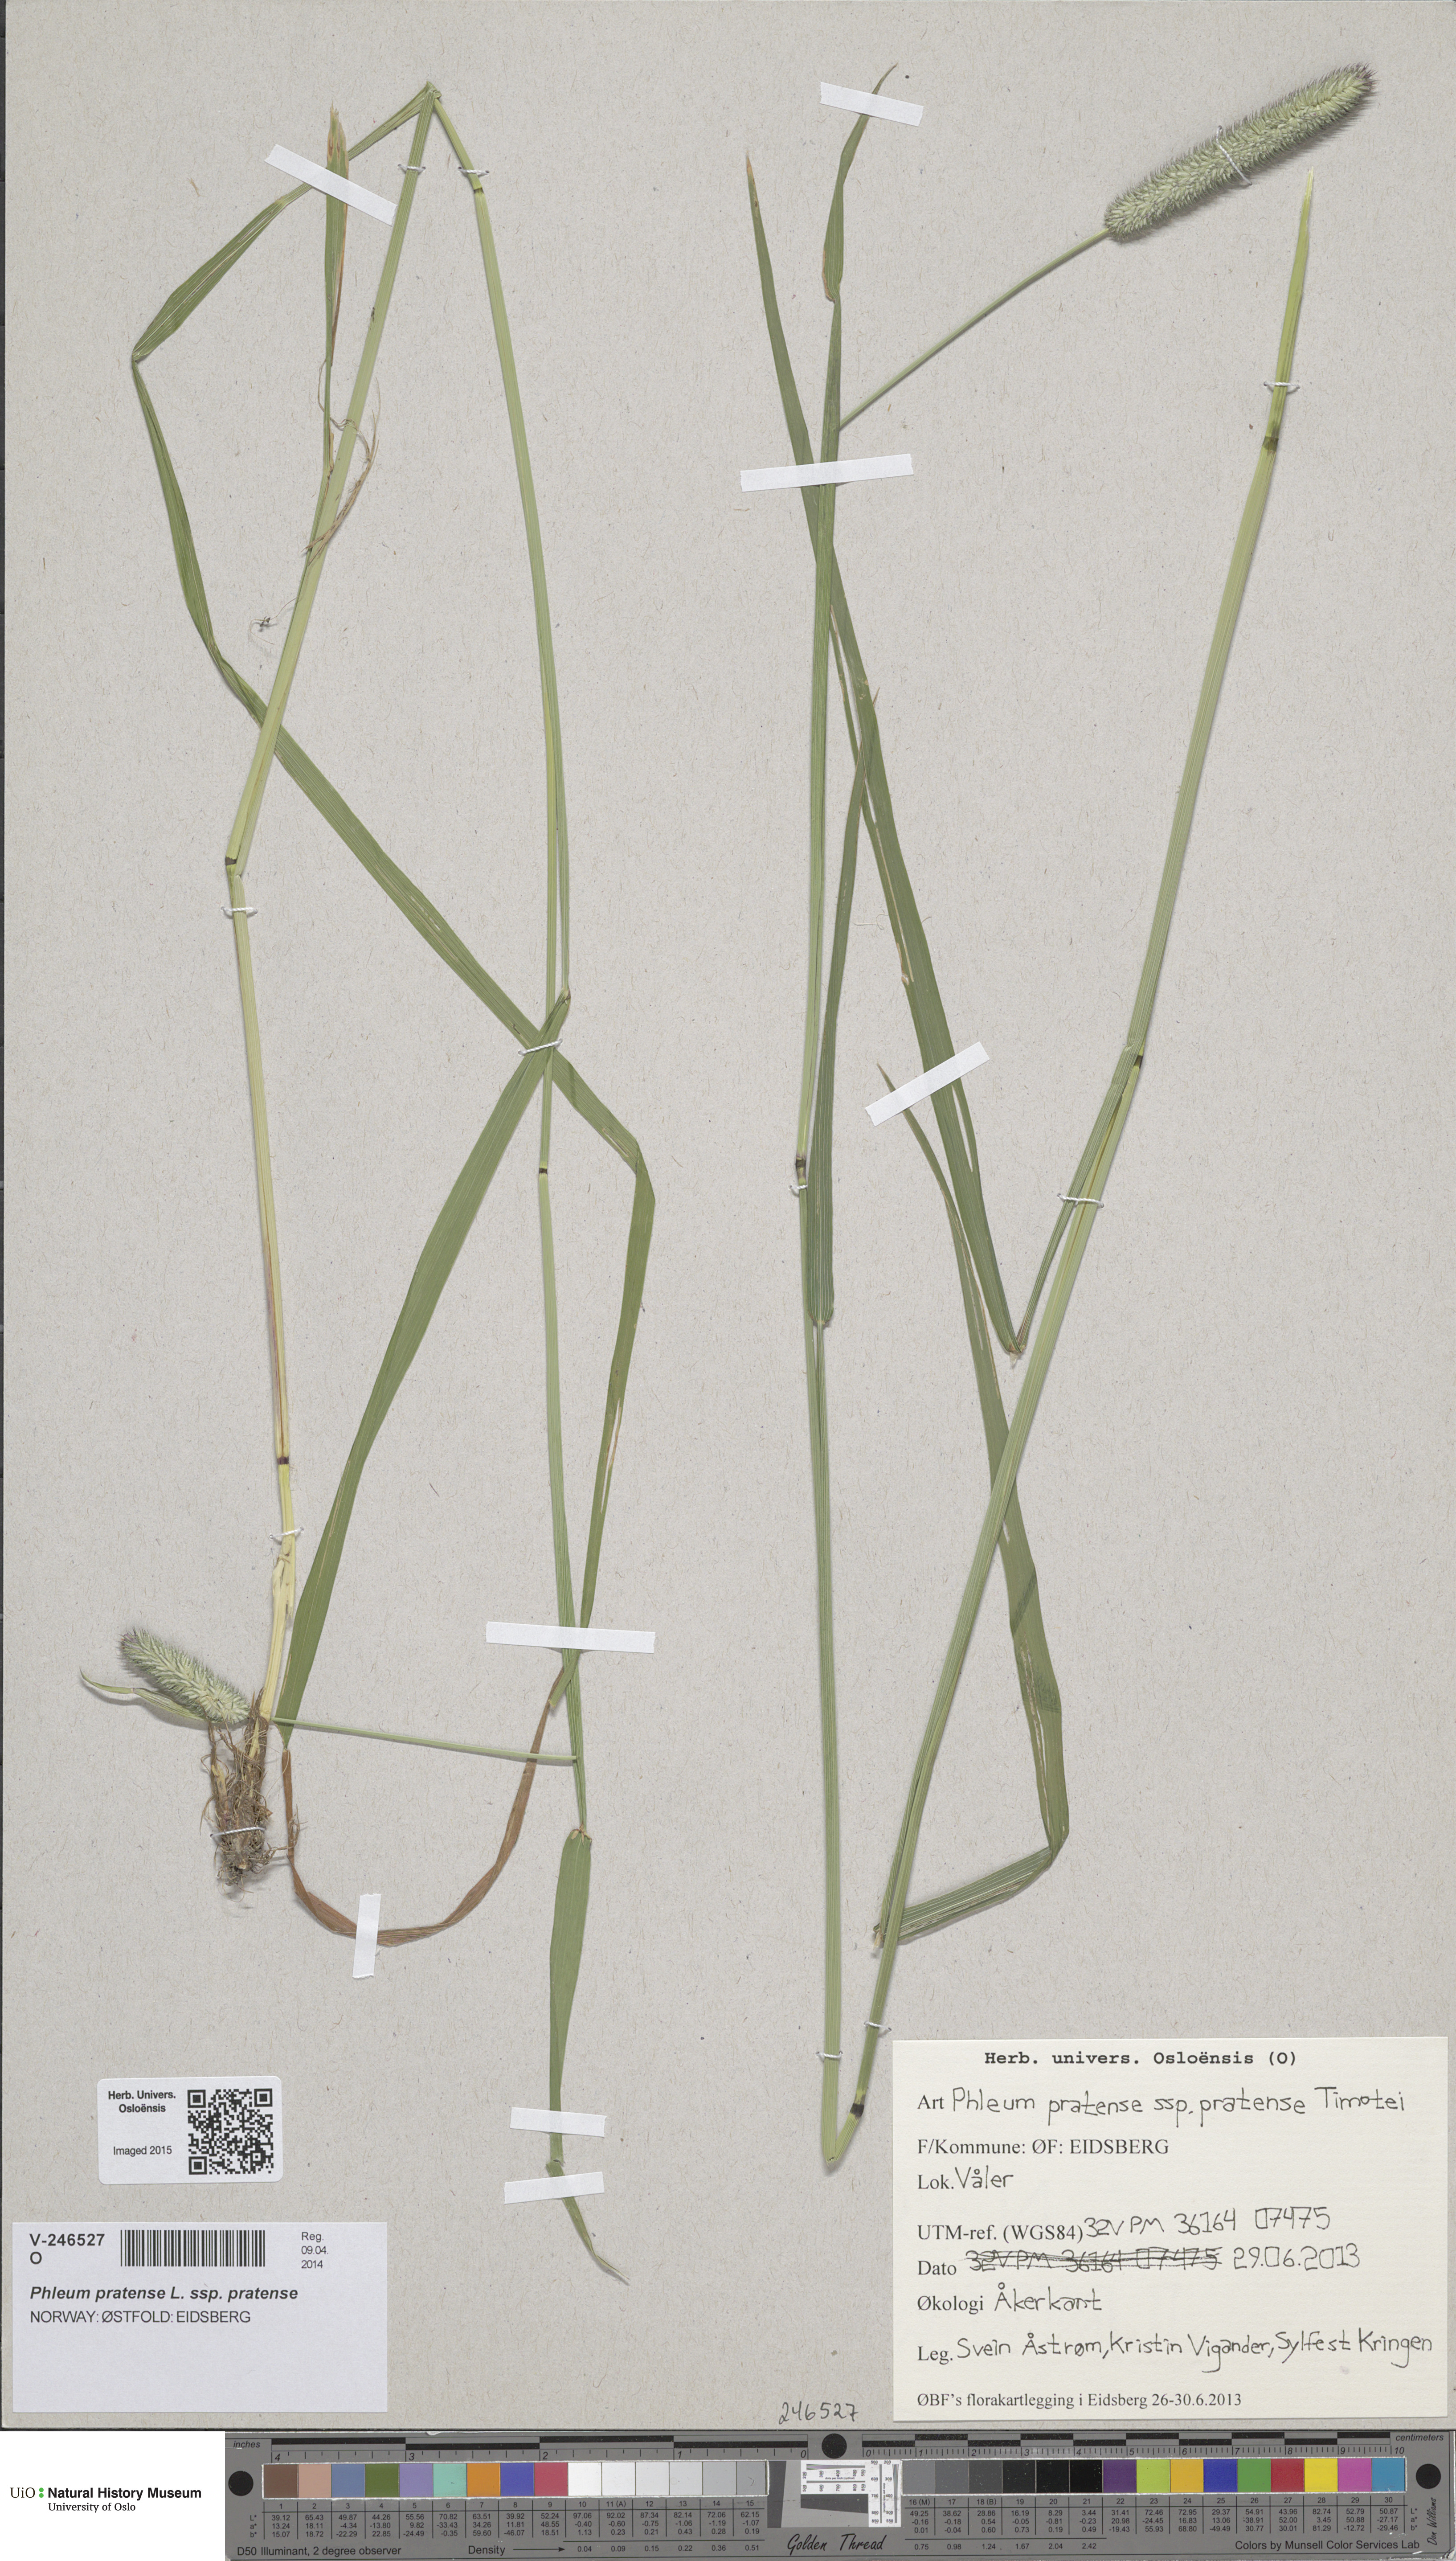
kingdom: Plantae
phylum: Tracheophyta
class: Liliopsida
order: Poales
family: Poaceae
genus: Phleum
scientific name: Phleum pratense
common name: Timothy grass
